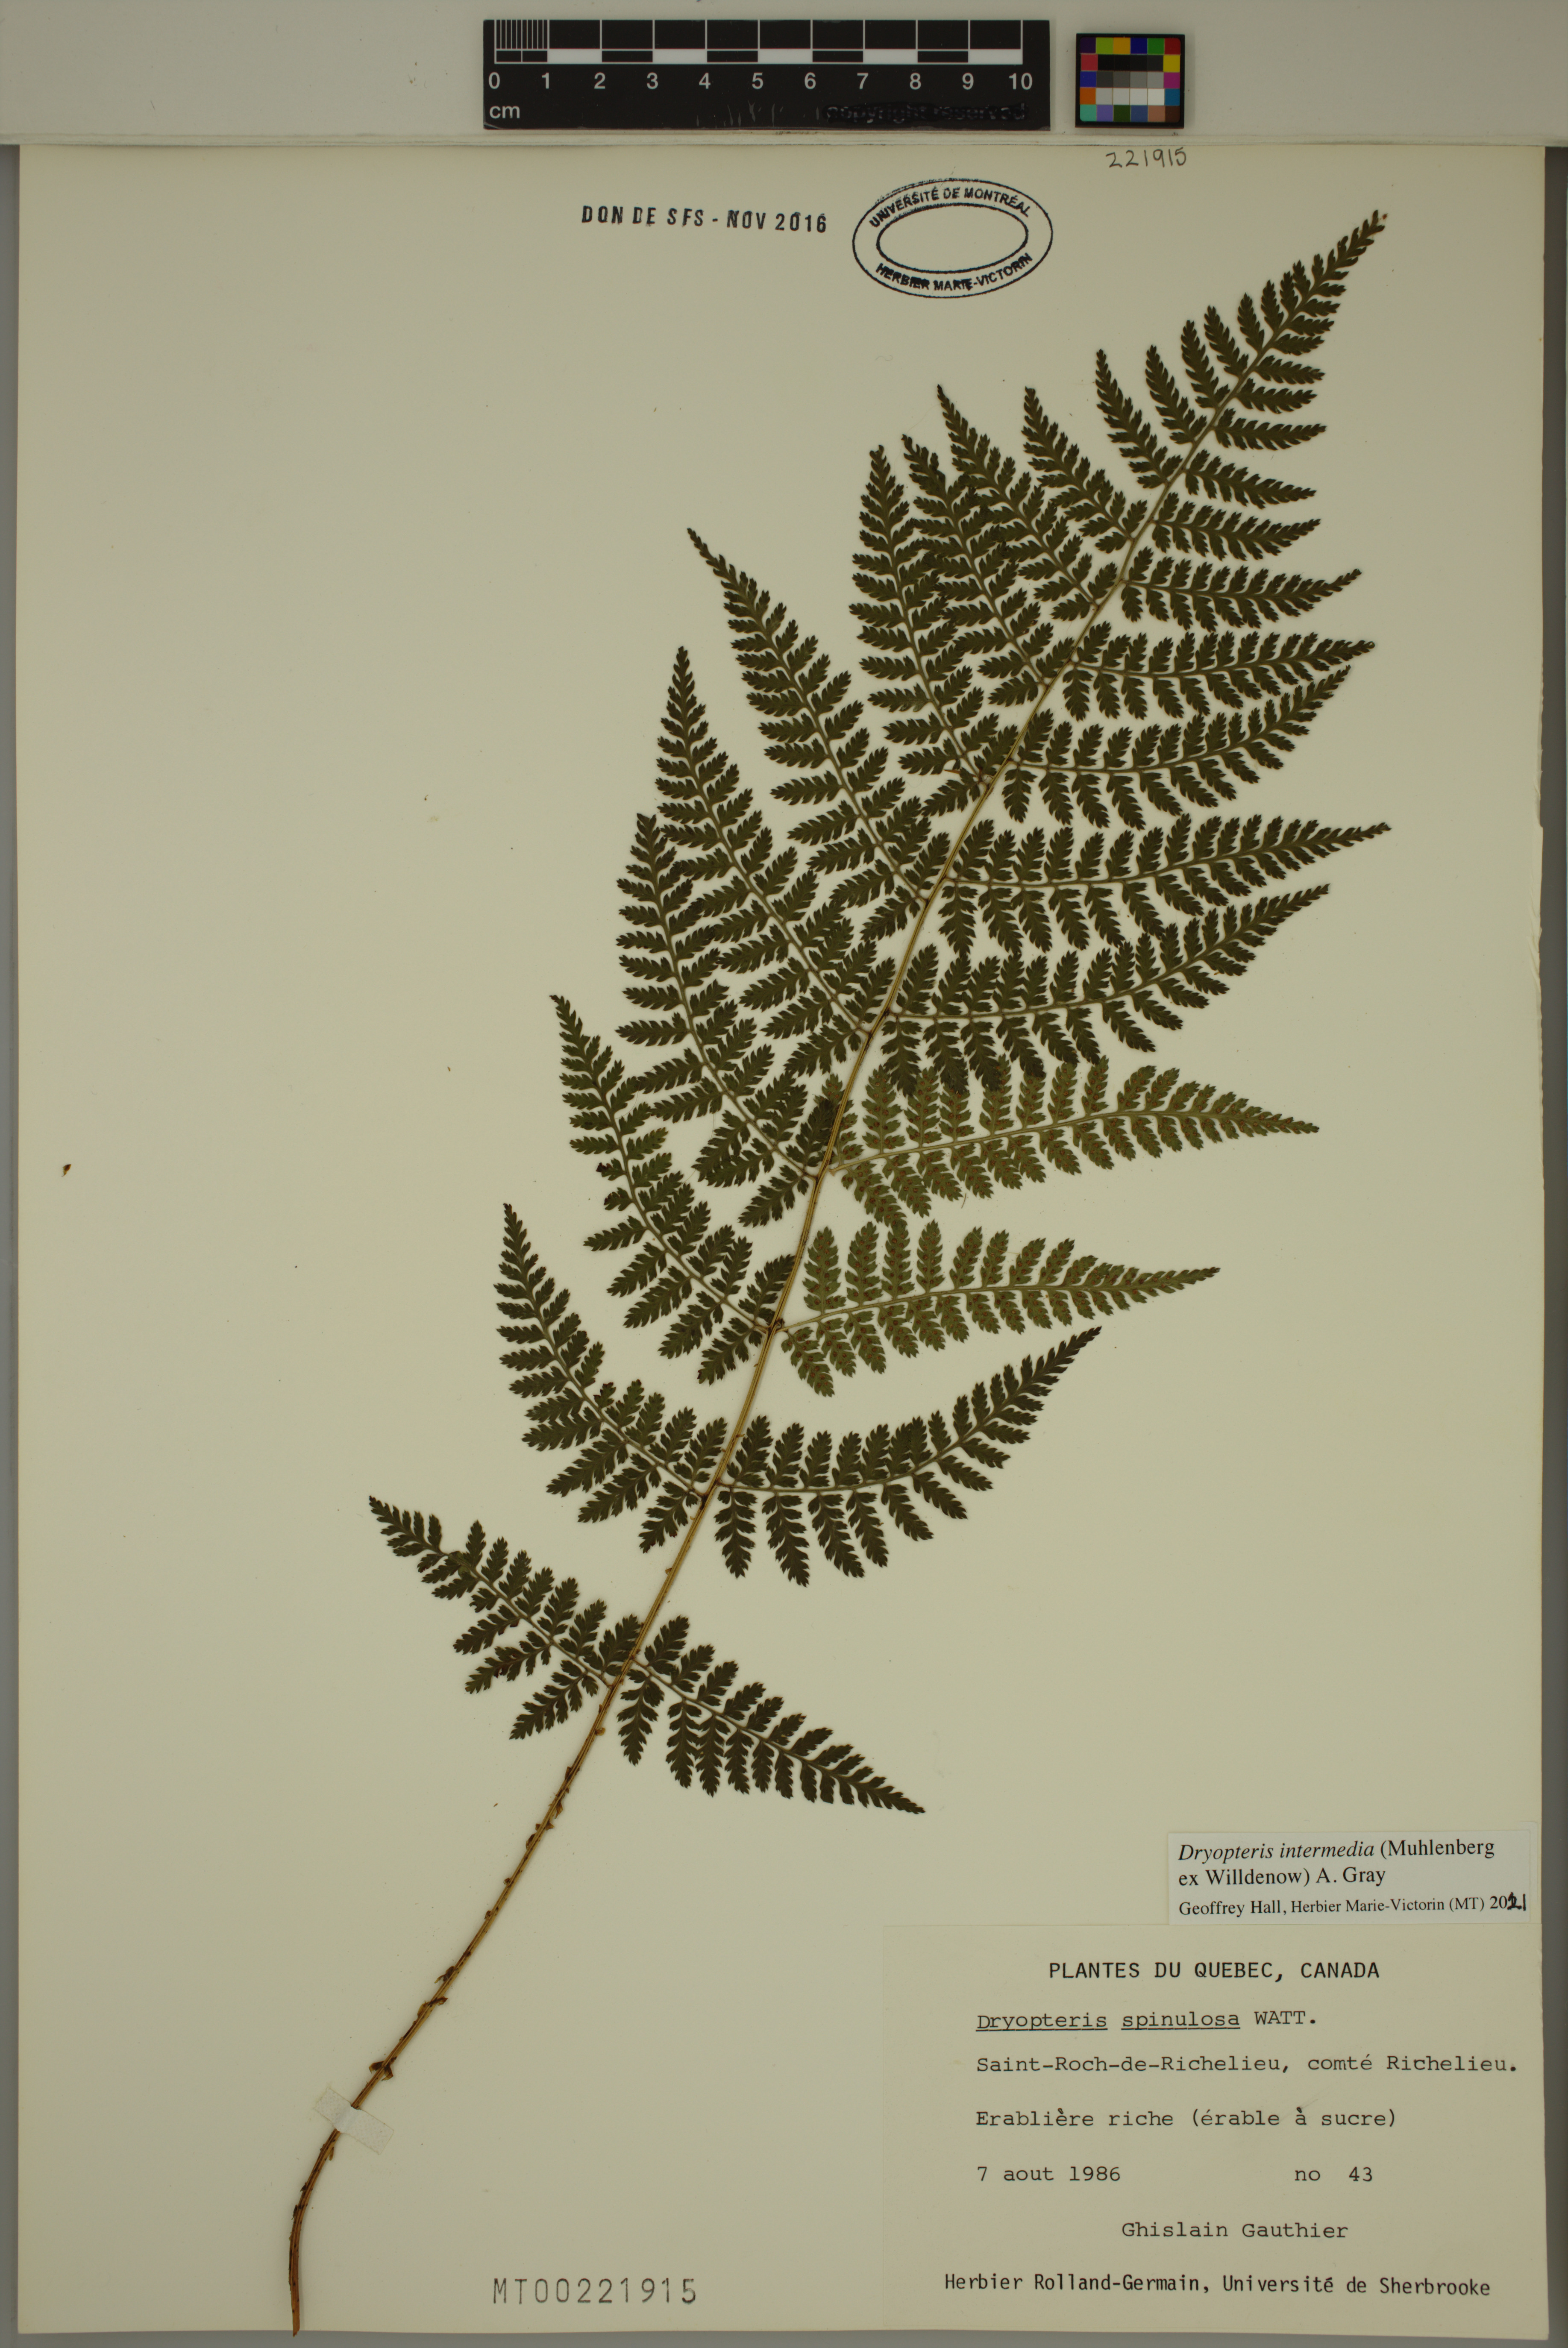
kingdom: Plantae
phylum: Tracheophyta
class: Polypodiopsida
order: Polypodiales
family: Dryopteridaceae
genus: Dryopteris
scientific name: Dryopteris intermedia
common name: Evergreen wood fern
